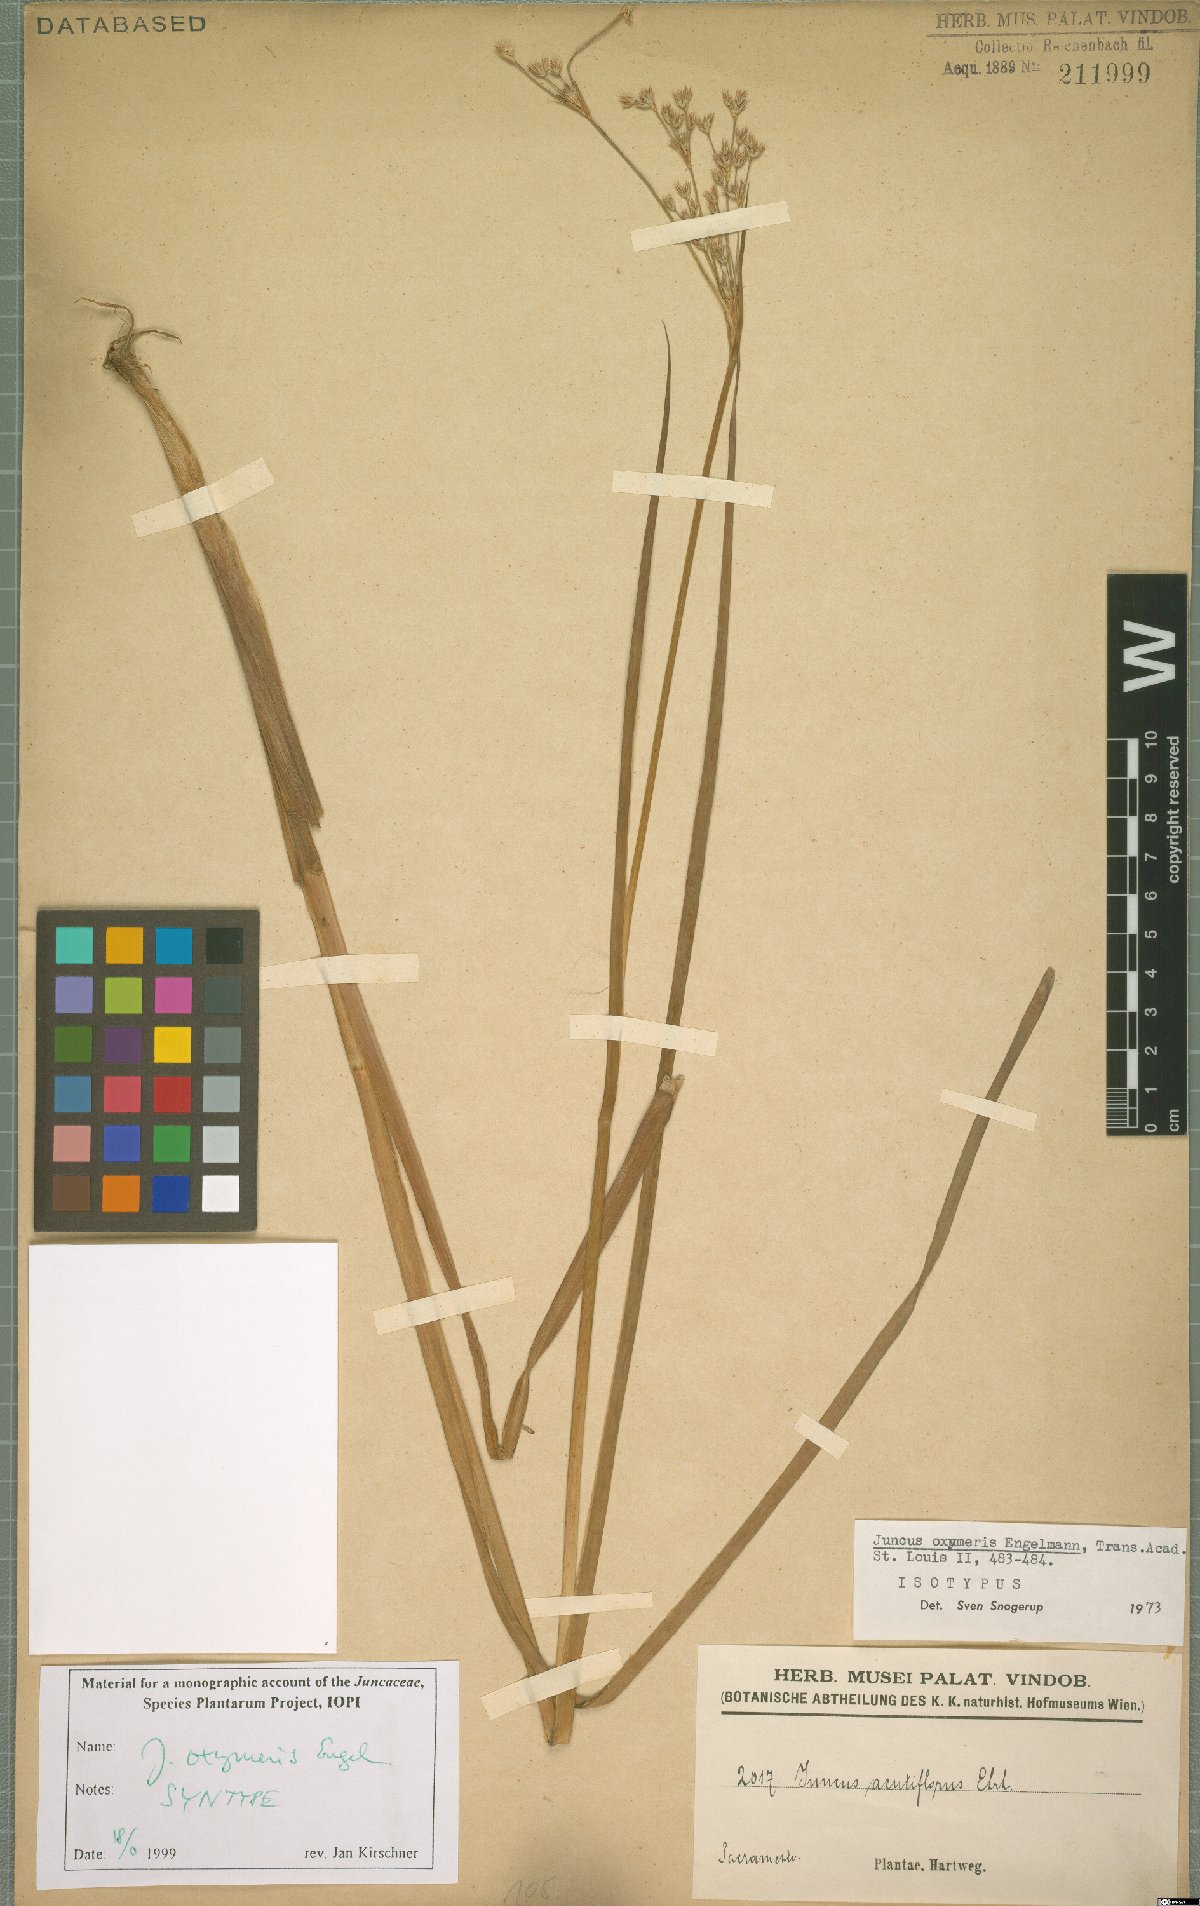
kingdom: Plantae
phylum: Tracheophyta
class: Liliopsida
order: Poales
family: Juncaceae
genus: Juncus
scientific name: Juncus oxymeris
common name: Pointed rush
